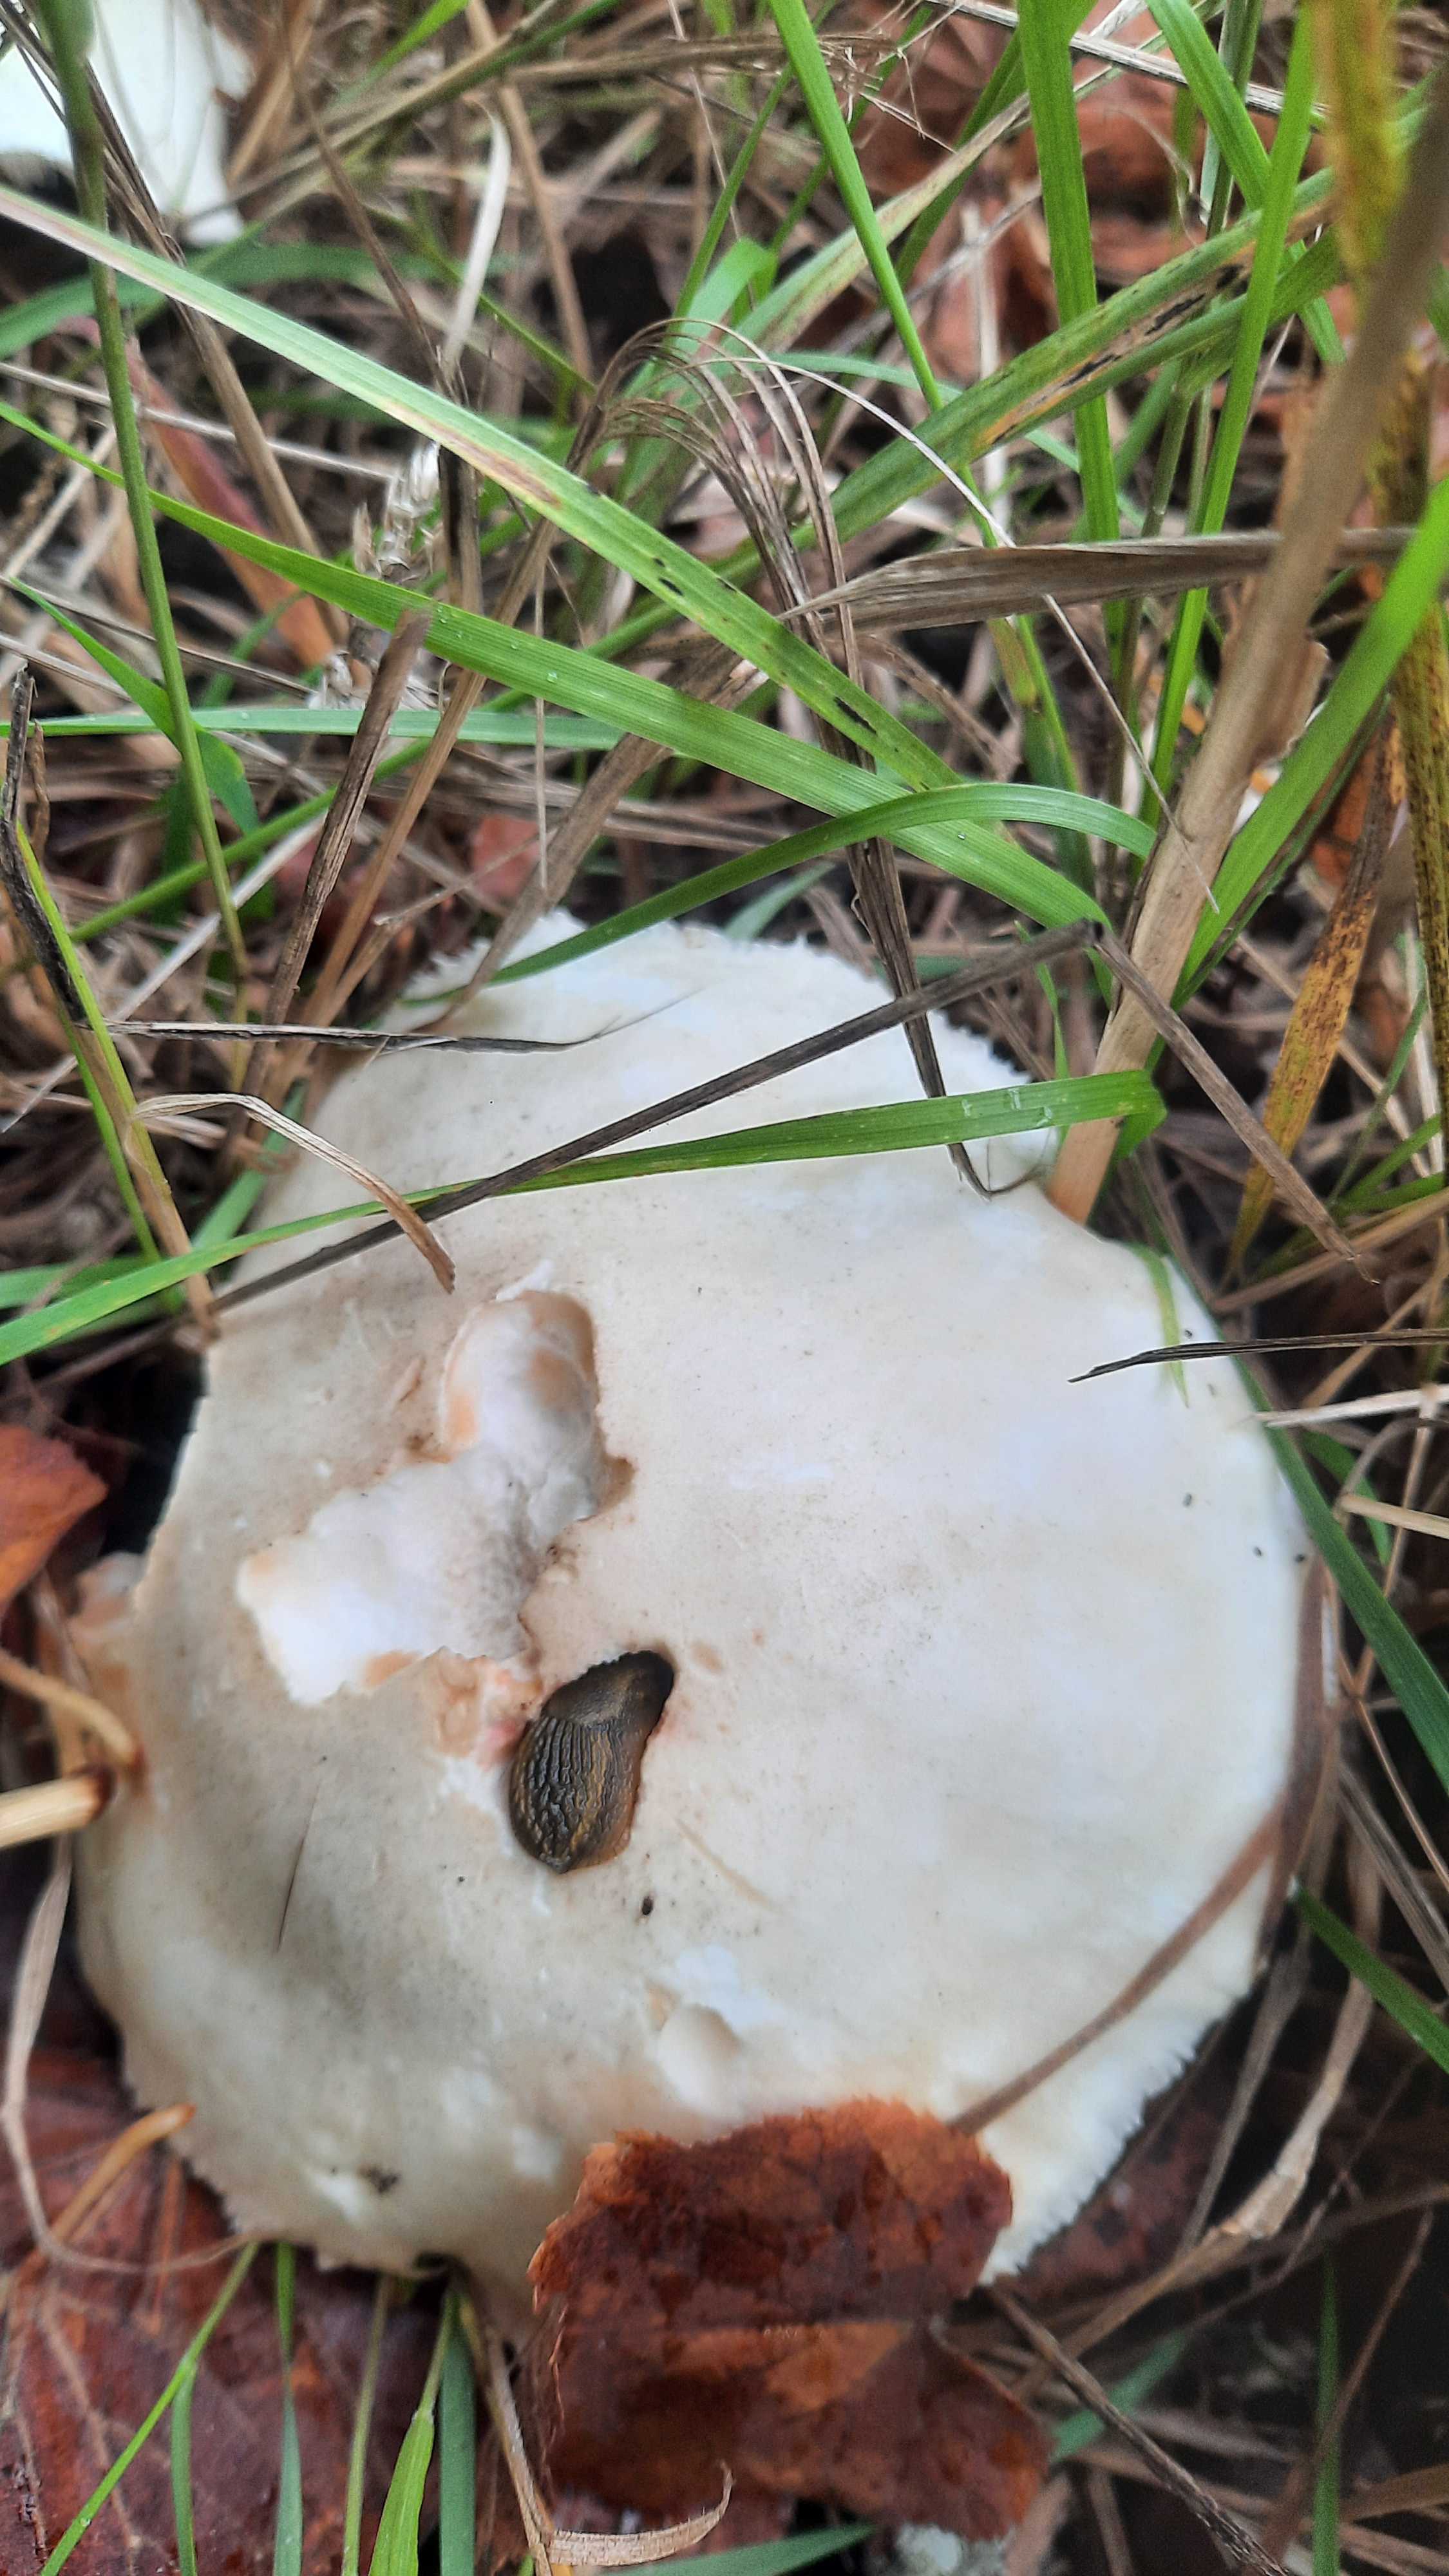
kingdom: Fungi
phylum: Basidiomycota
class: Agaricomycetes
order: Agaricales
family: Agaricaceae
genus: Leucoagaricus
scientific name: Leucoagaricus leucothites
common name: rosabladet silkehat
